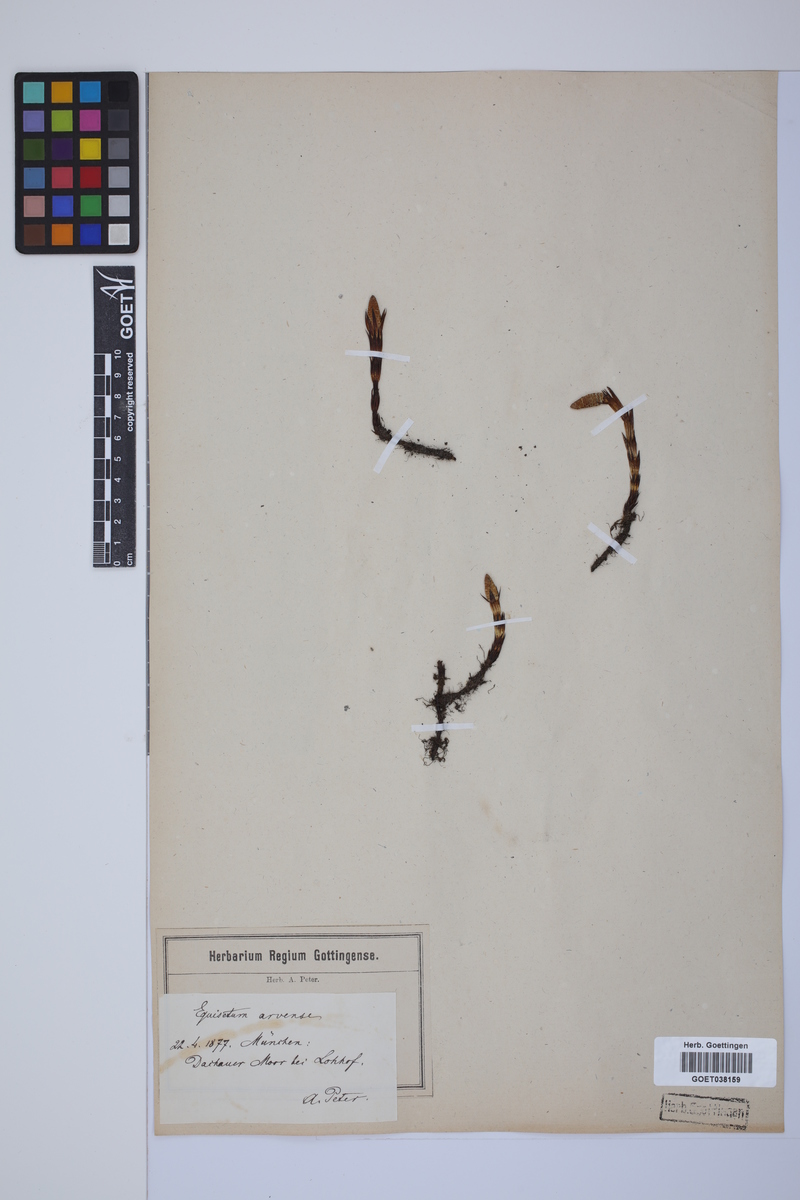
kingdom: Plantae
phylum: Tracheophyta
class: Polypodiopsida
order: Equisetales
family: Equisetaceae
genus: Equisetum
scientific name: Equisetum arvense
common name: Field horsetail
